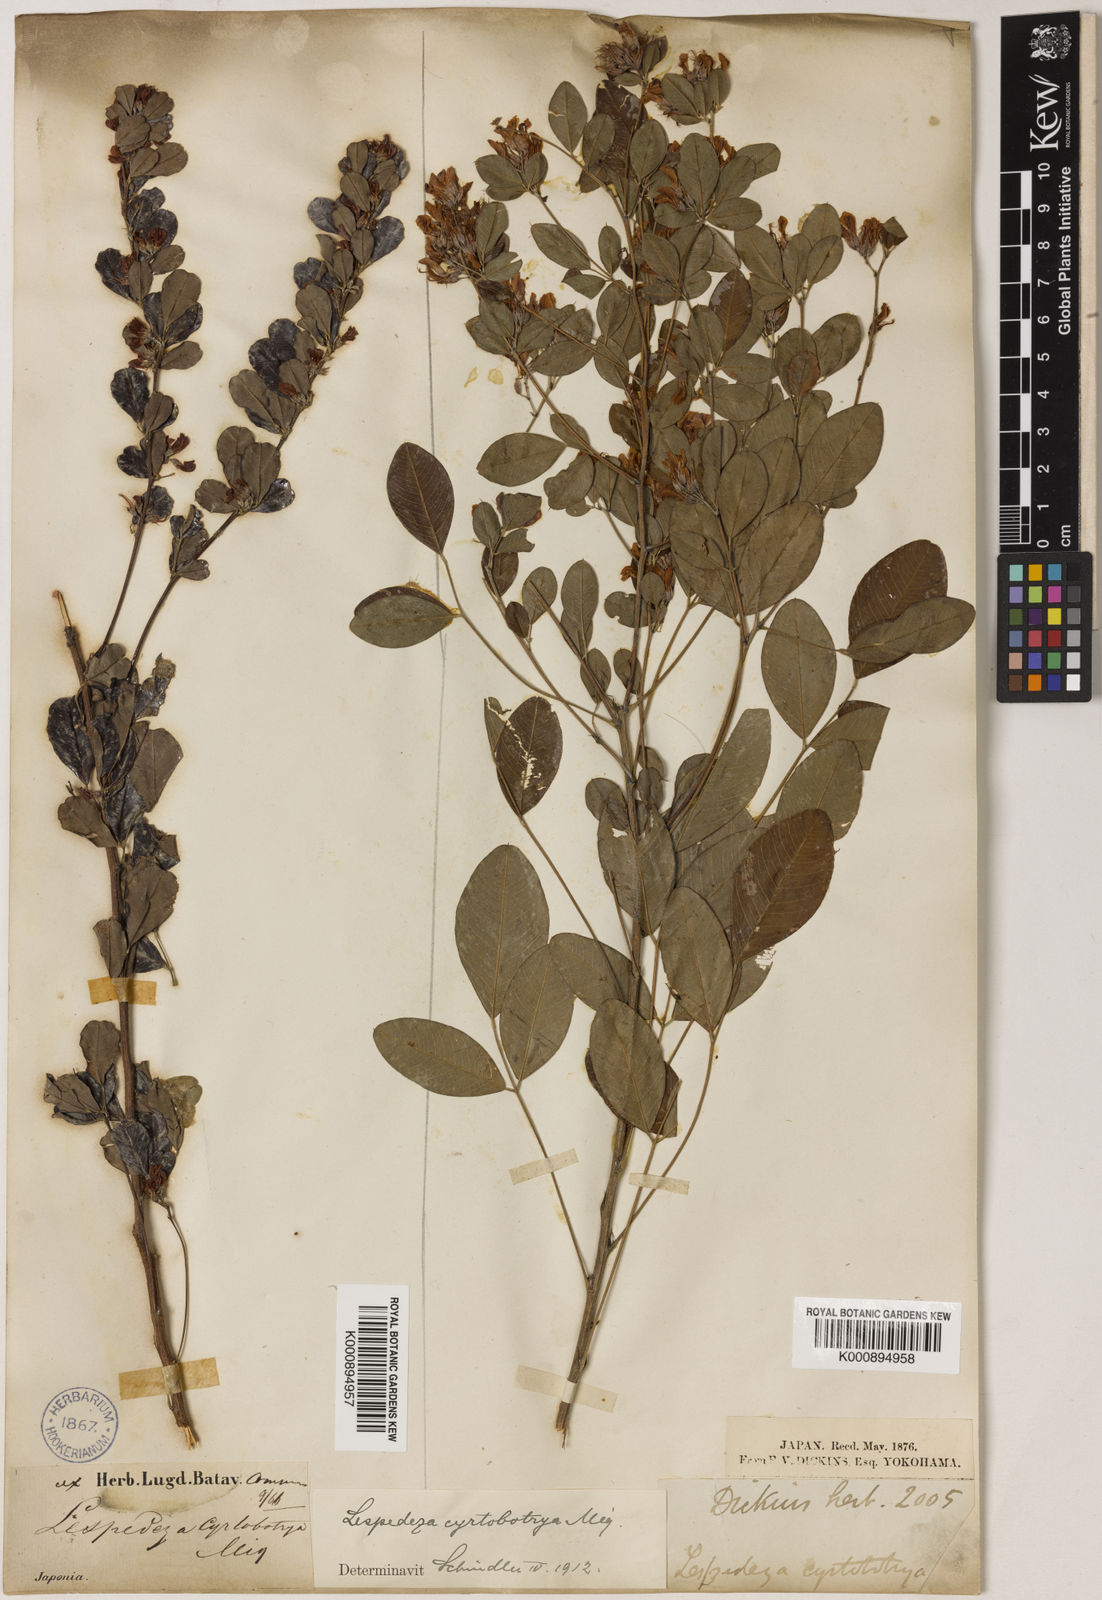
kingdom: Plantae
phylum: Tracheophyta
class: Magnoliopsida
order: Fabales
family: Fabaceae
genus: Lespedeza
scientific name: Lespedeza cyrtobotrya
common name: Leafy lespedeza
